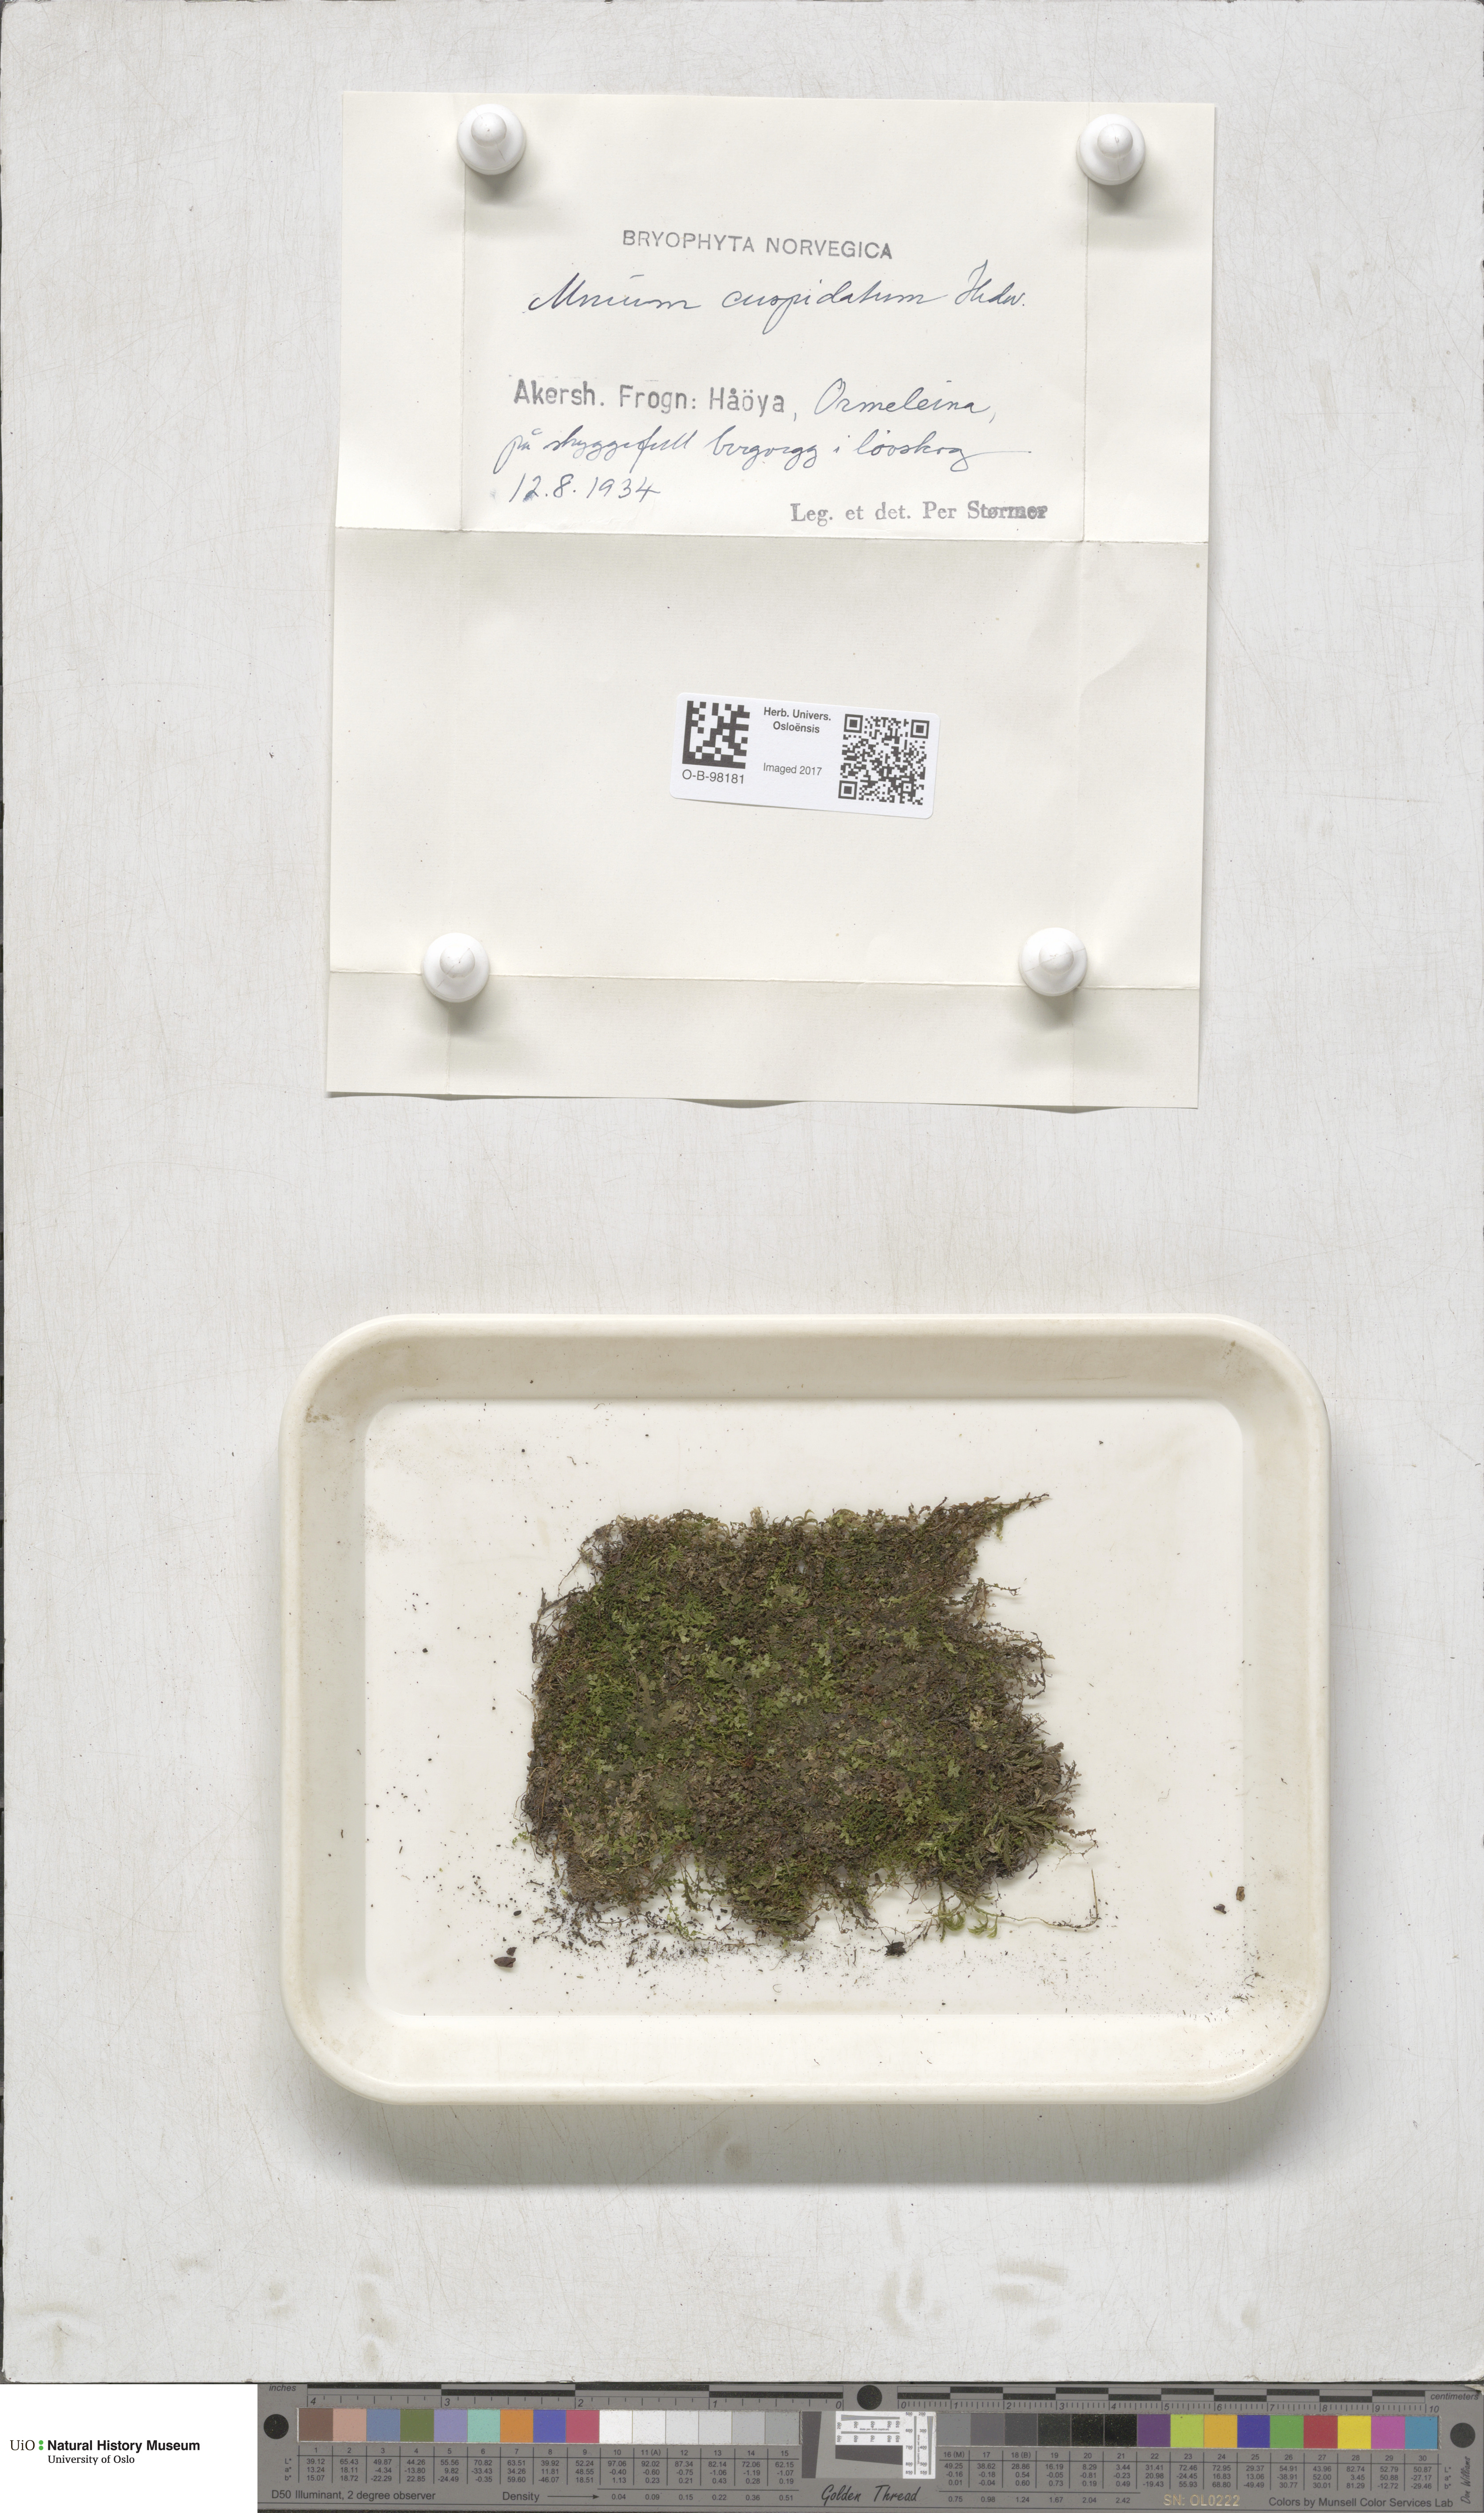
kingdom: Plantae
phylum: Bryophyta
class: Bryopsida
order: Bryales
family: Mniaceae
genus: Plagiomnium
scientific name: Plagiomnium affine
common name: Many-fruited thyme-moss
